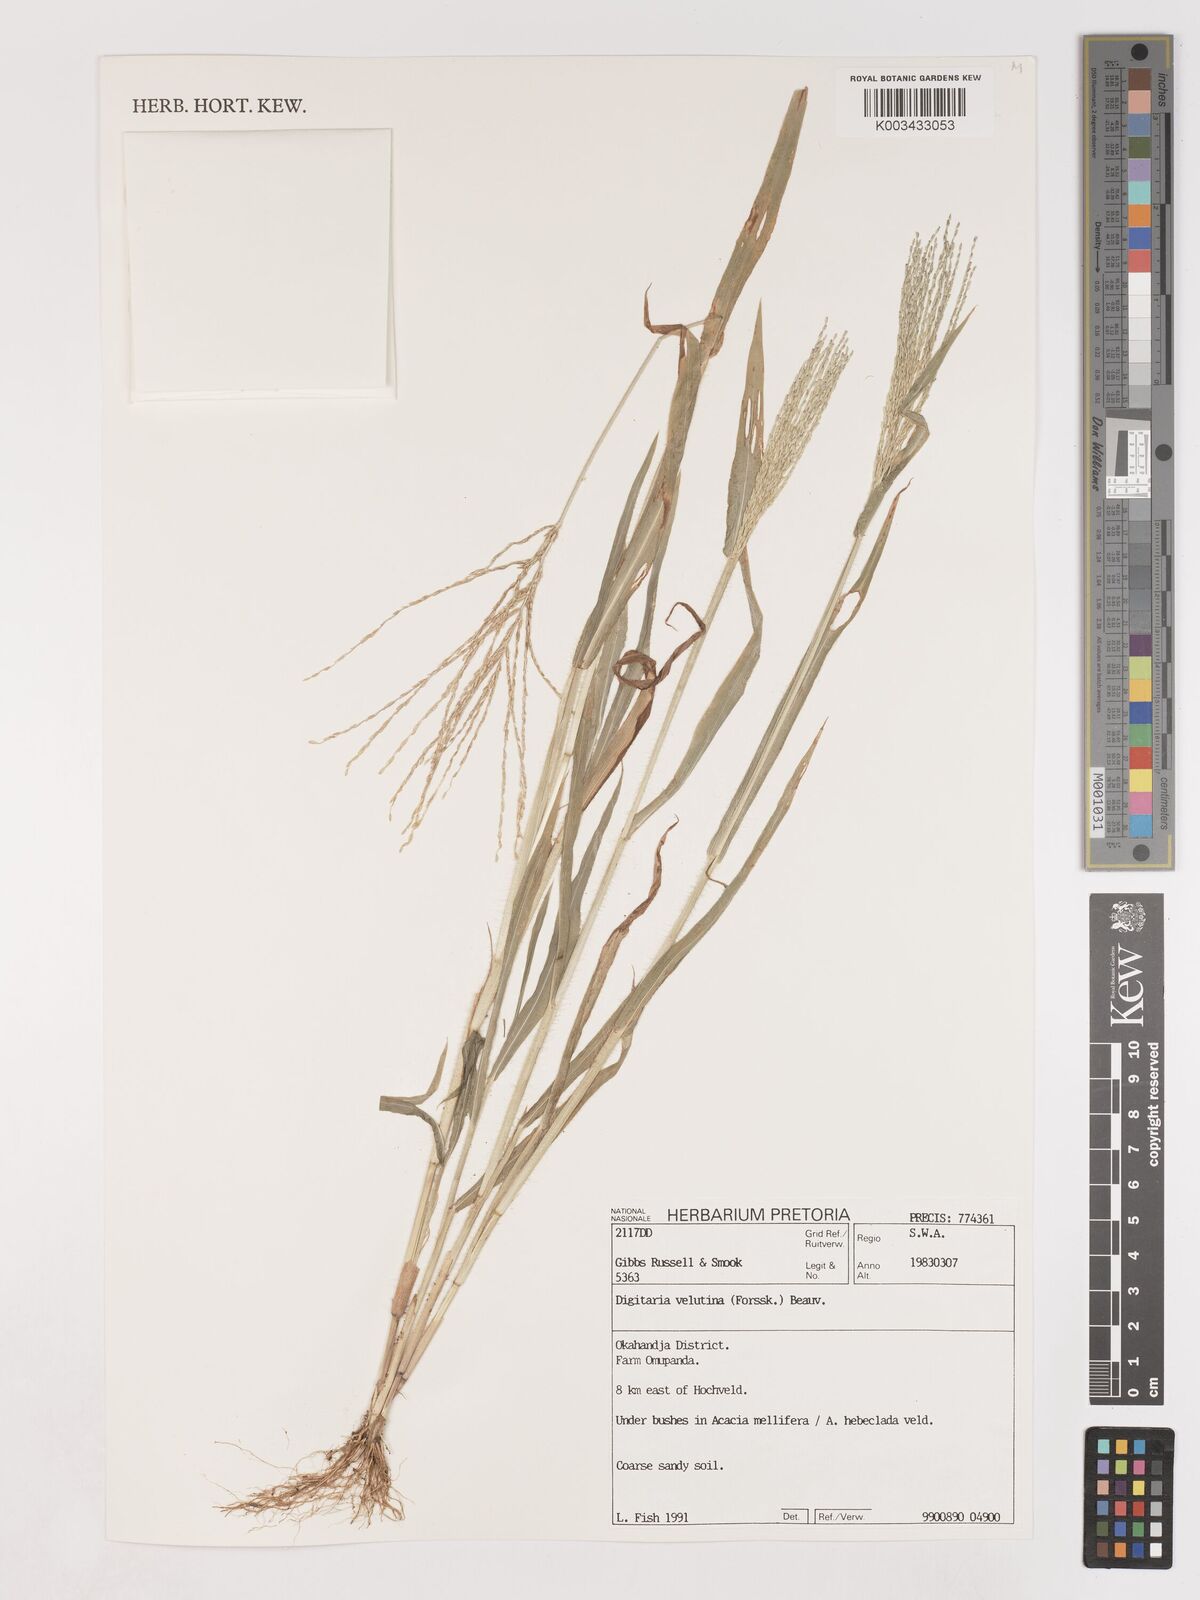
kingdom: Plantae
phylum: Tracheophyta
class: Liliopsida
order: Poales
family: Poaceae
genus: Digitaria
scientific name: Digitaria velutina
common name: Long-plume finger grass
